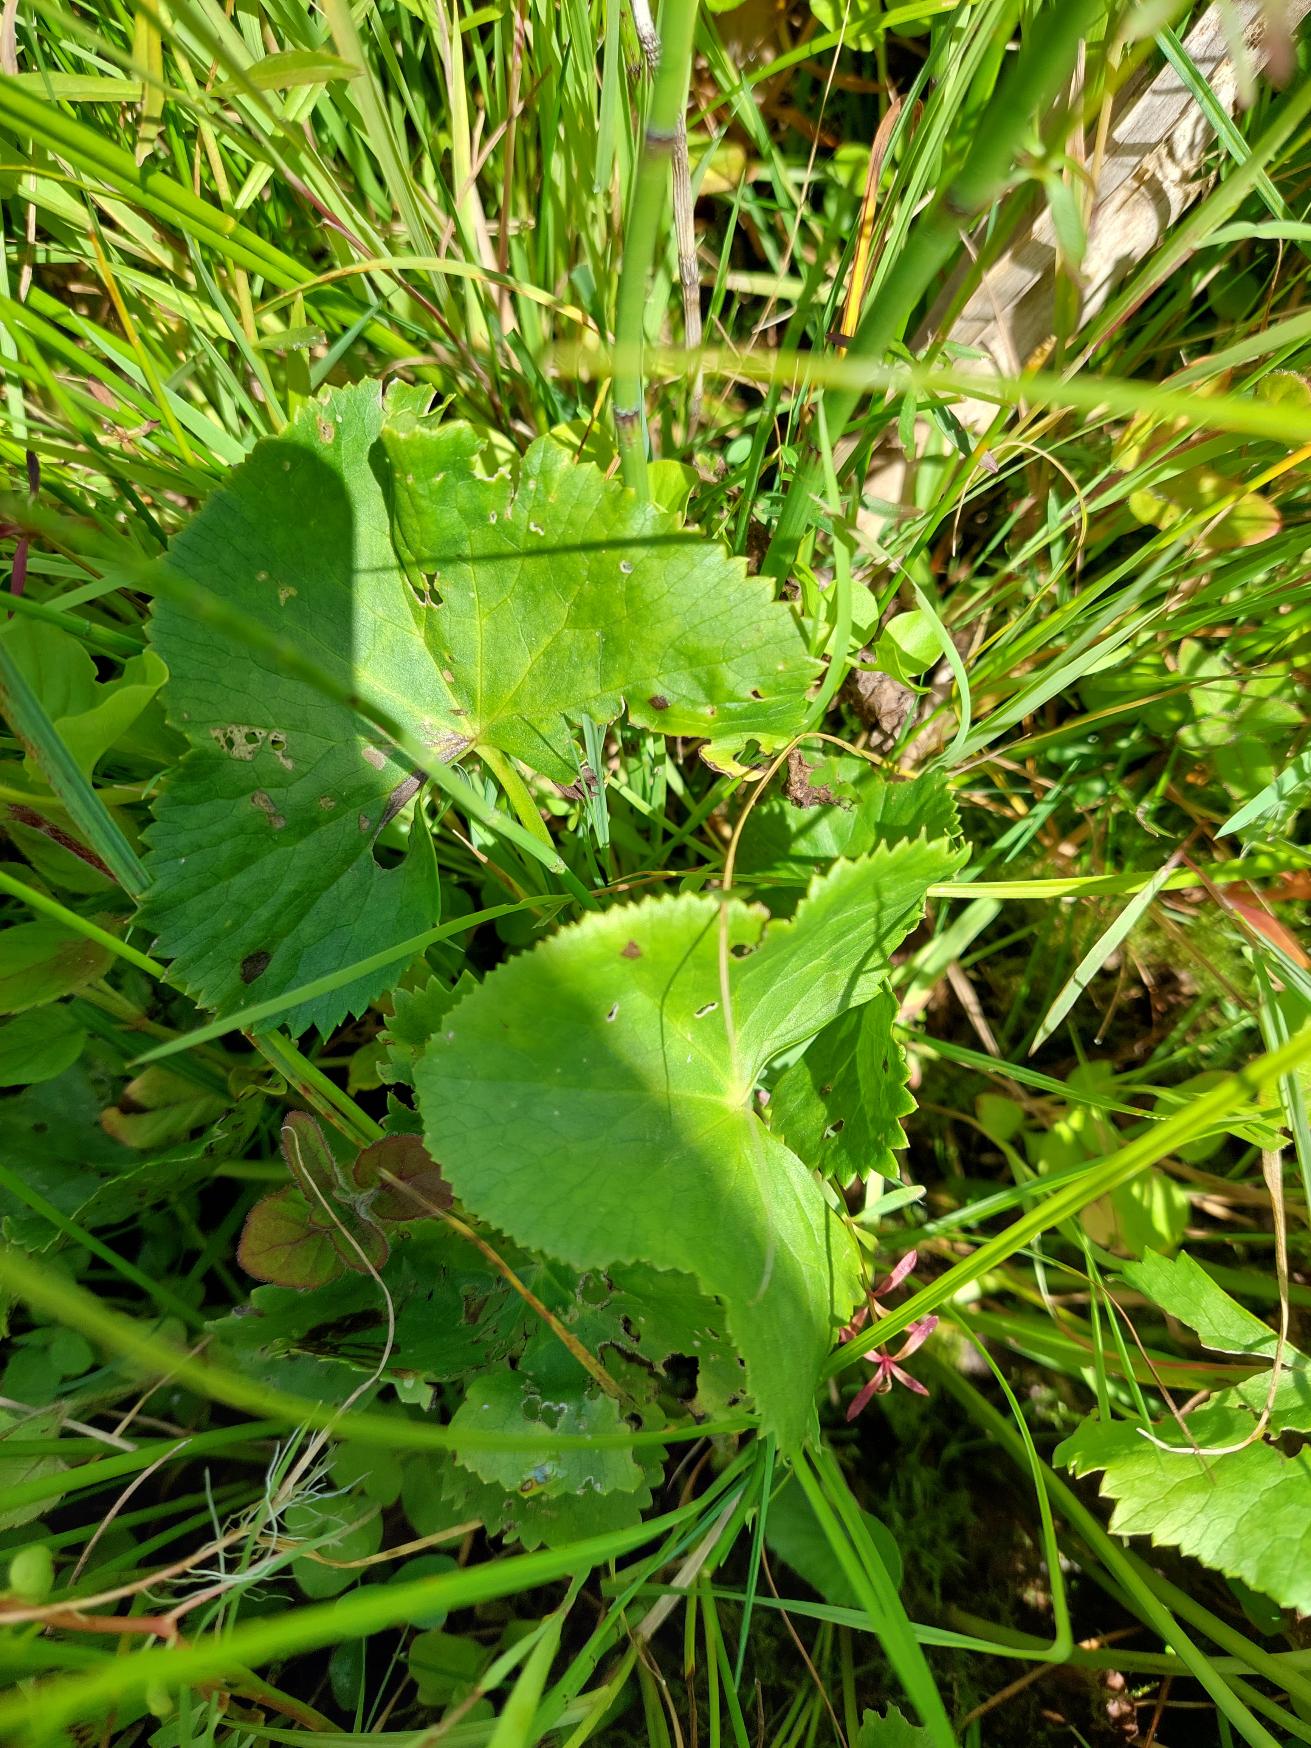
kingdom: Plantae
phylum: Tracheophyta
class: Magnoliopsida
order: Ranunculales
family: Ranunculaceae
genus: Caltha
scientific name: Caltha palustris
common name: Eng-kabbeleje
